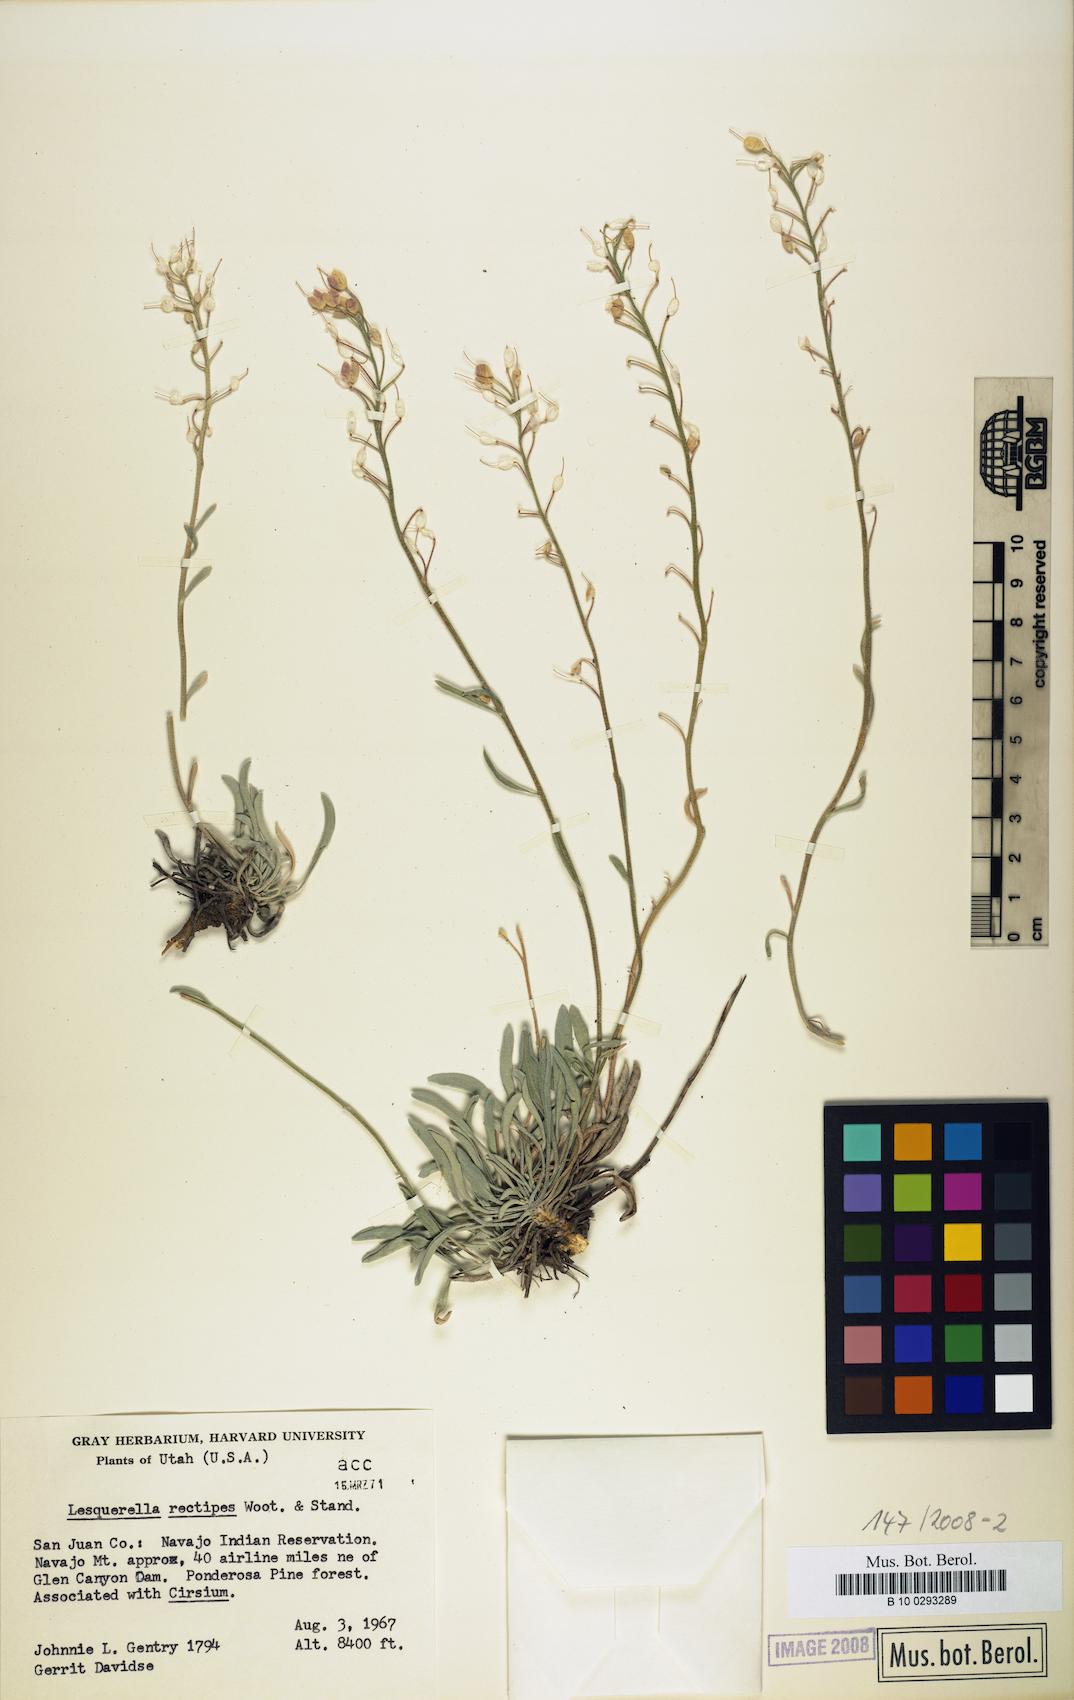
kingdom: Plantae
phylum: Tracheophyta
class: Magnoliopsida
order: Brassicales
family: Brassicaceae
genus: Physaria
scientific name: Physaria rectipes
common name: Colorado bladderpod
